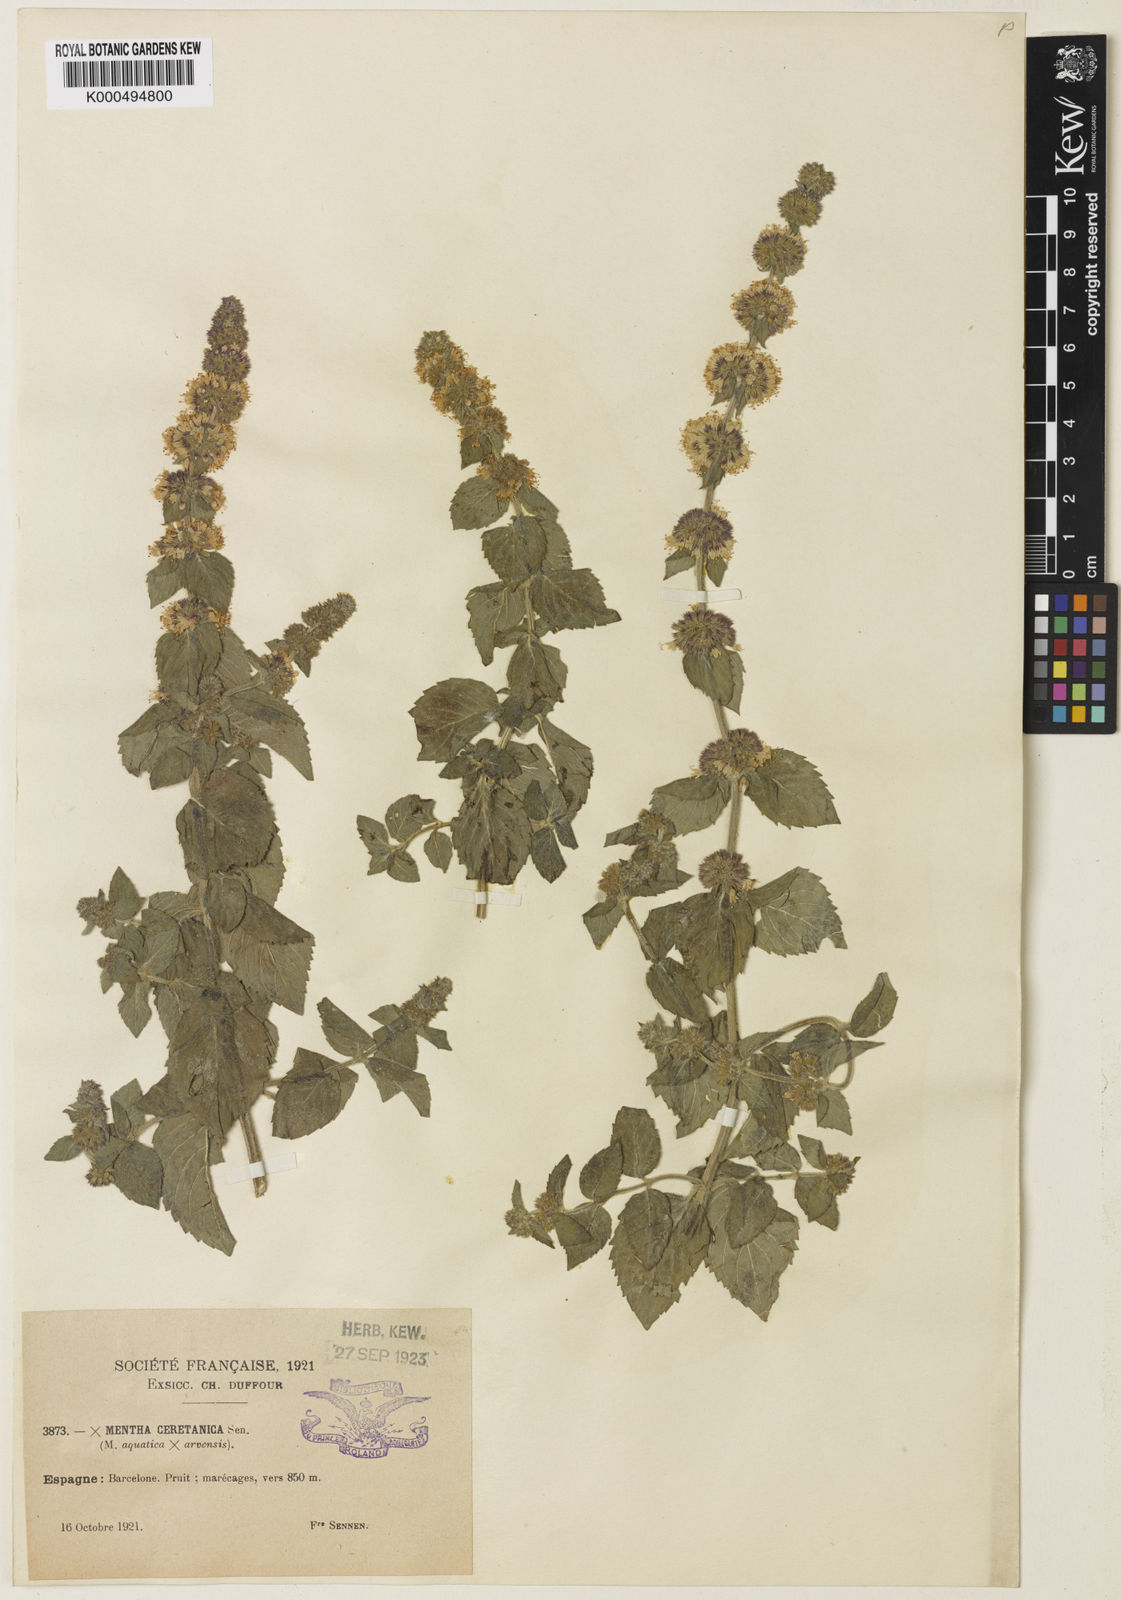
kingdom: Plantae
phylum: Tracheophyta
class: Magnoliopsida
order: Lamiales
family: Lamiaceae
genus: Mentha
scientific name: Mentha verticillata
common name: Mint
